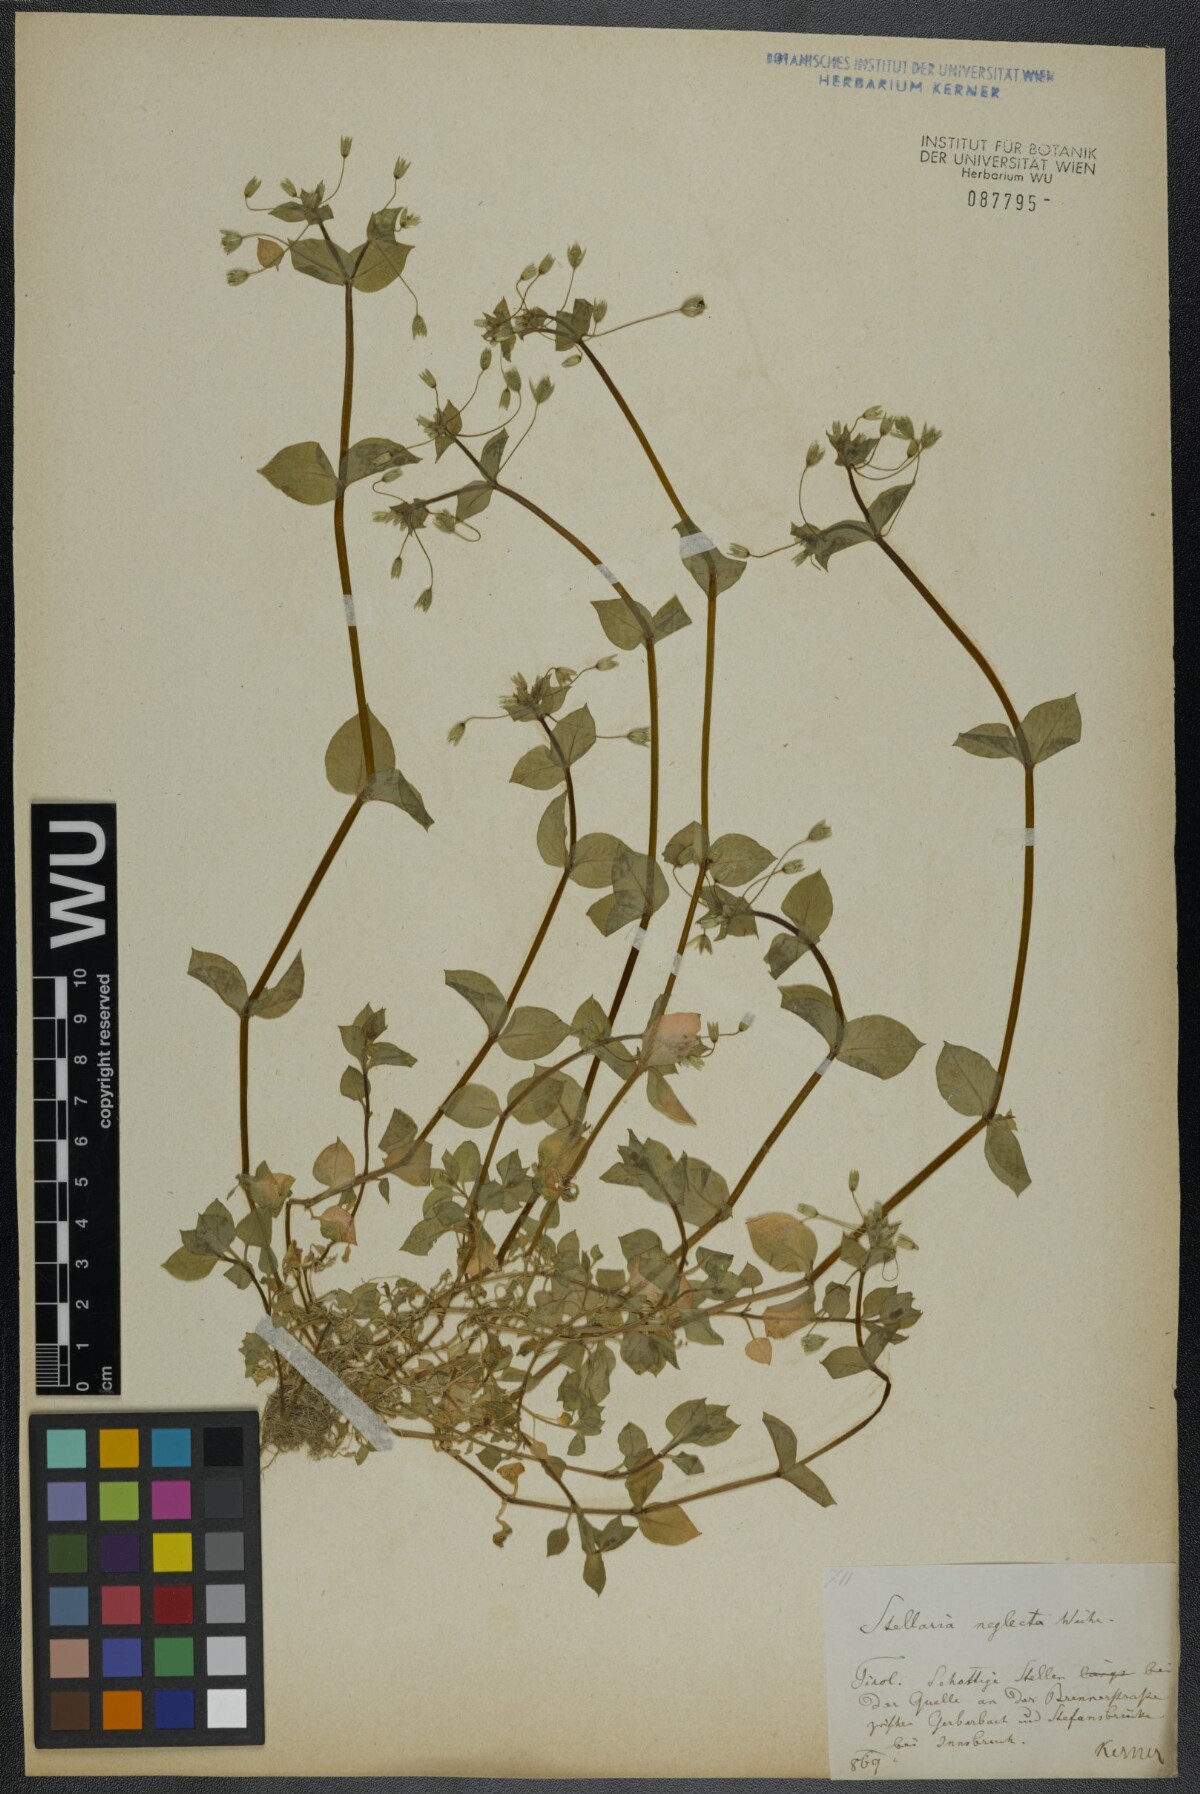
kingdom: Plantae
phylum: Tracheophyta
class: Magnoliopsida
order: Caryophyllales
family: Caryophyllaceae
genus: Stellaria
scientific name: Stellaria neglecta
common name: Greater chickweed
